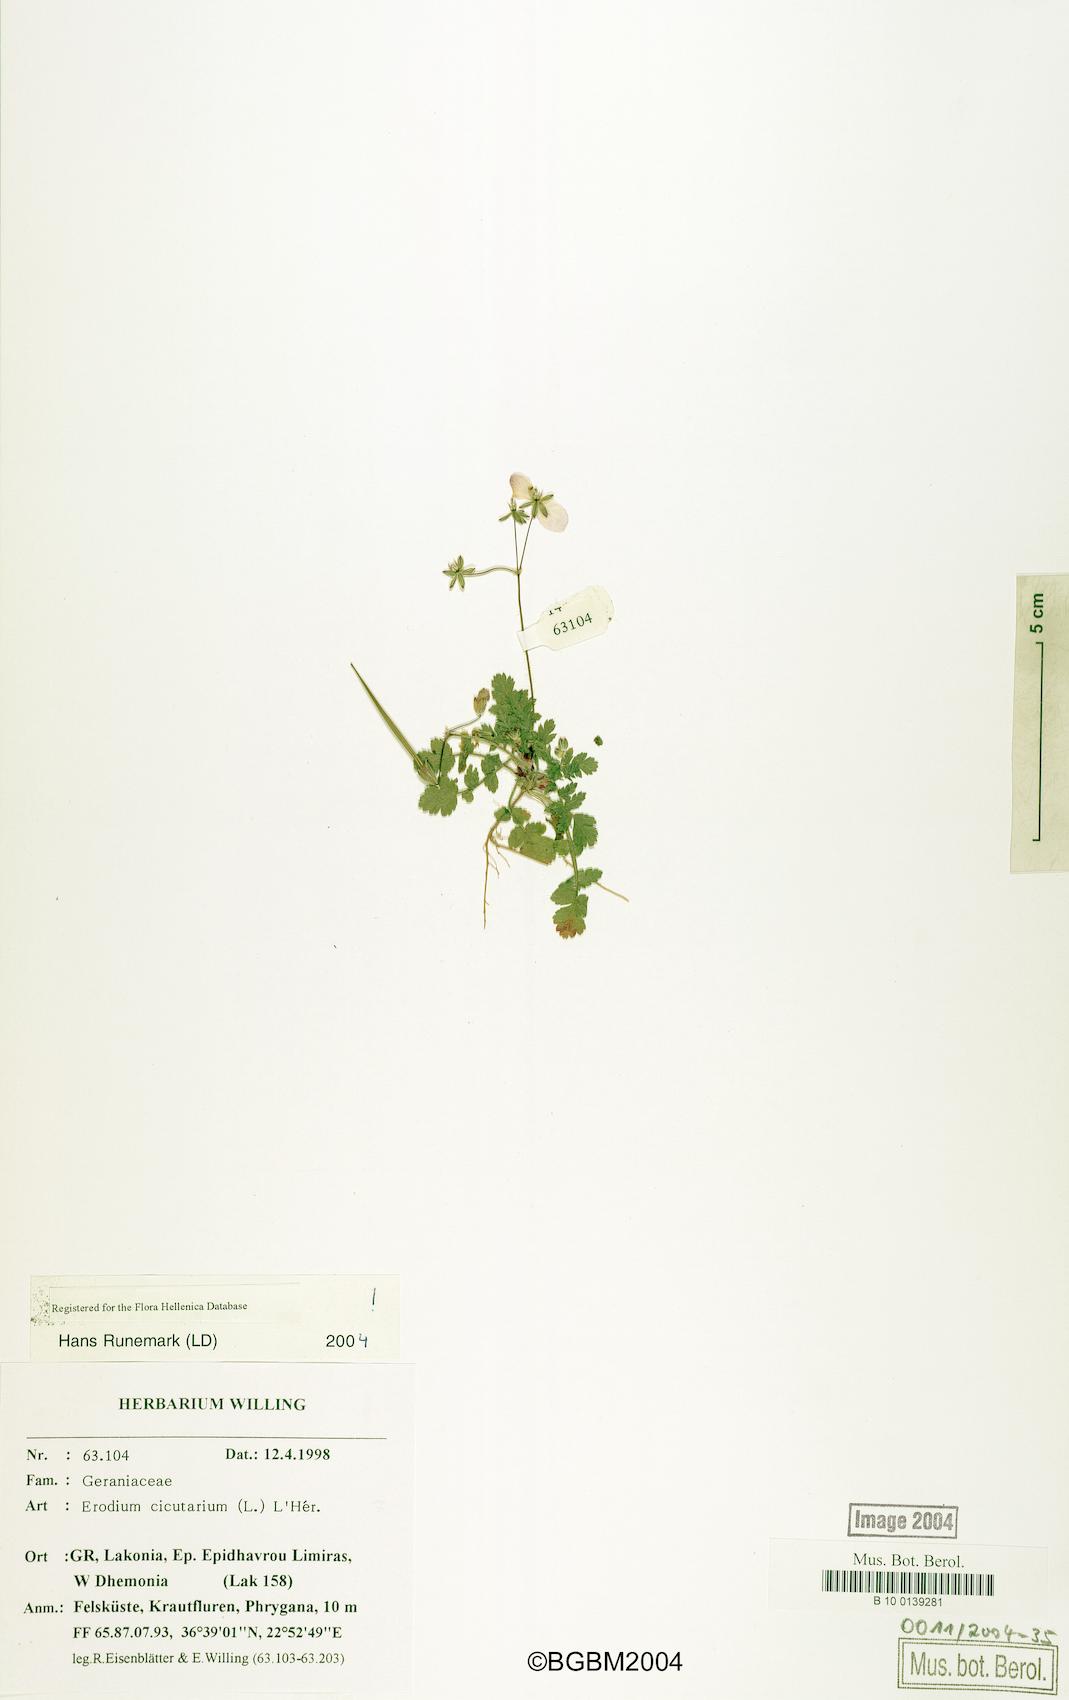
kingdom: Plantae
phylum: Tracheophyta
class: Magnoliopsida
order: Geraniales
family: Geraniaceae
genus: Erodium
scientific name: Erodium cicutarium
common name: Common stork's-bill
